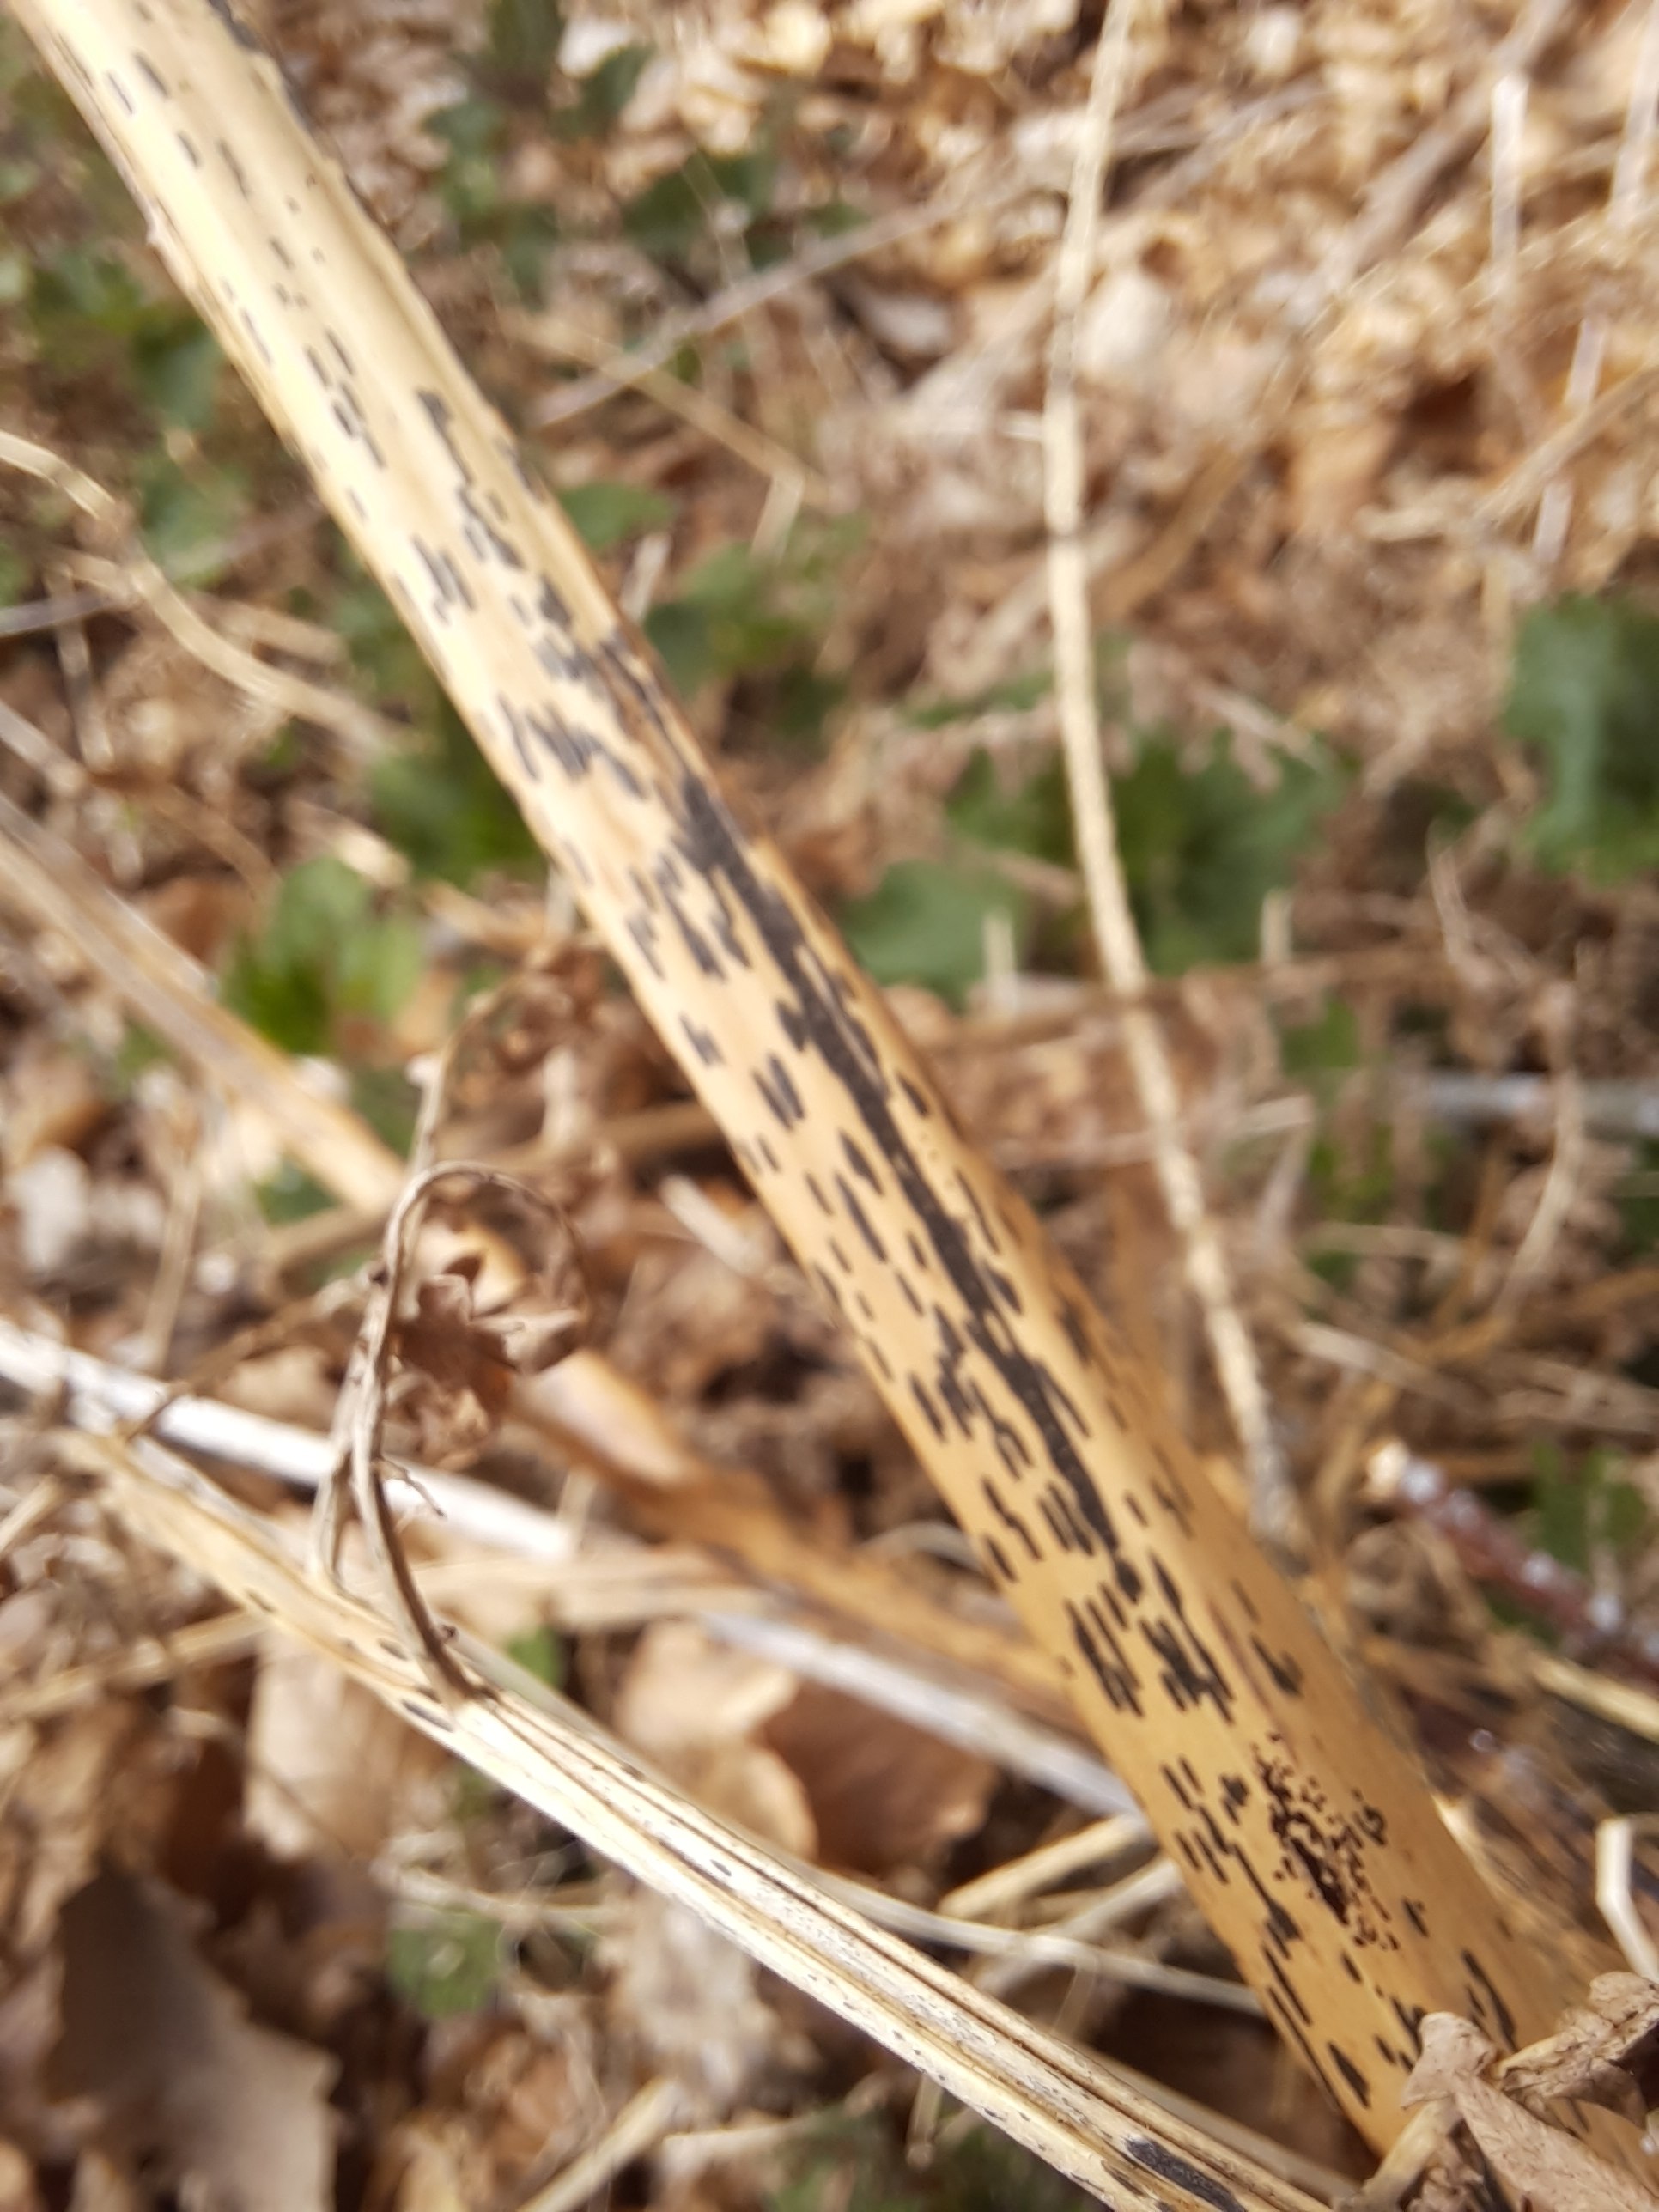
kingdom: Fungi
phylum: Ascomycota
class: Dothideomycetes
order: Pleosporales
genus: Rhopographus
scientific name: Rhopographus filicinus
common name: Bracken map
